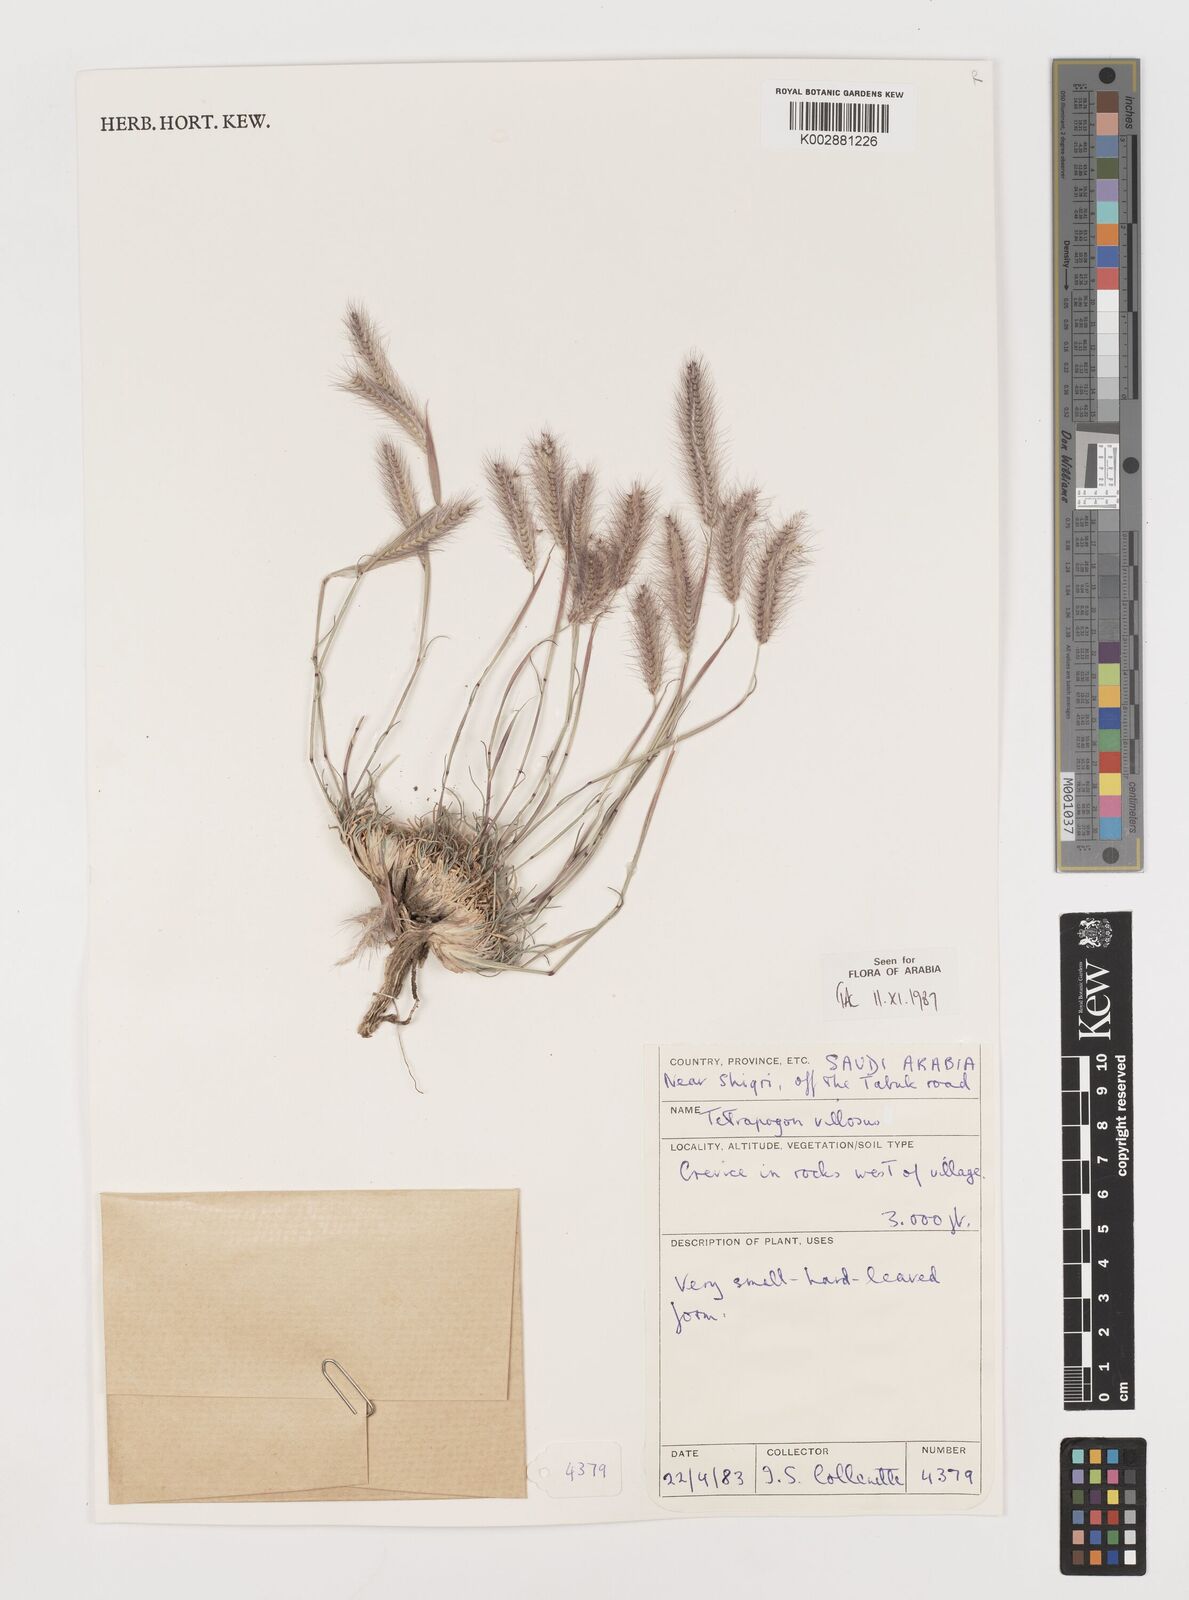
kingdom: Plantae
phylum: Tracheophyta
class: Liliopsida
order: Poales
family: Poaceae
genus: Tetrapogon
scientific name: Tetrapogon villosus
